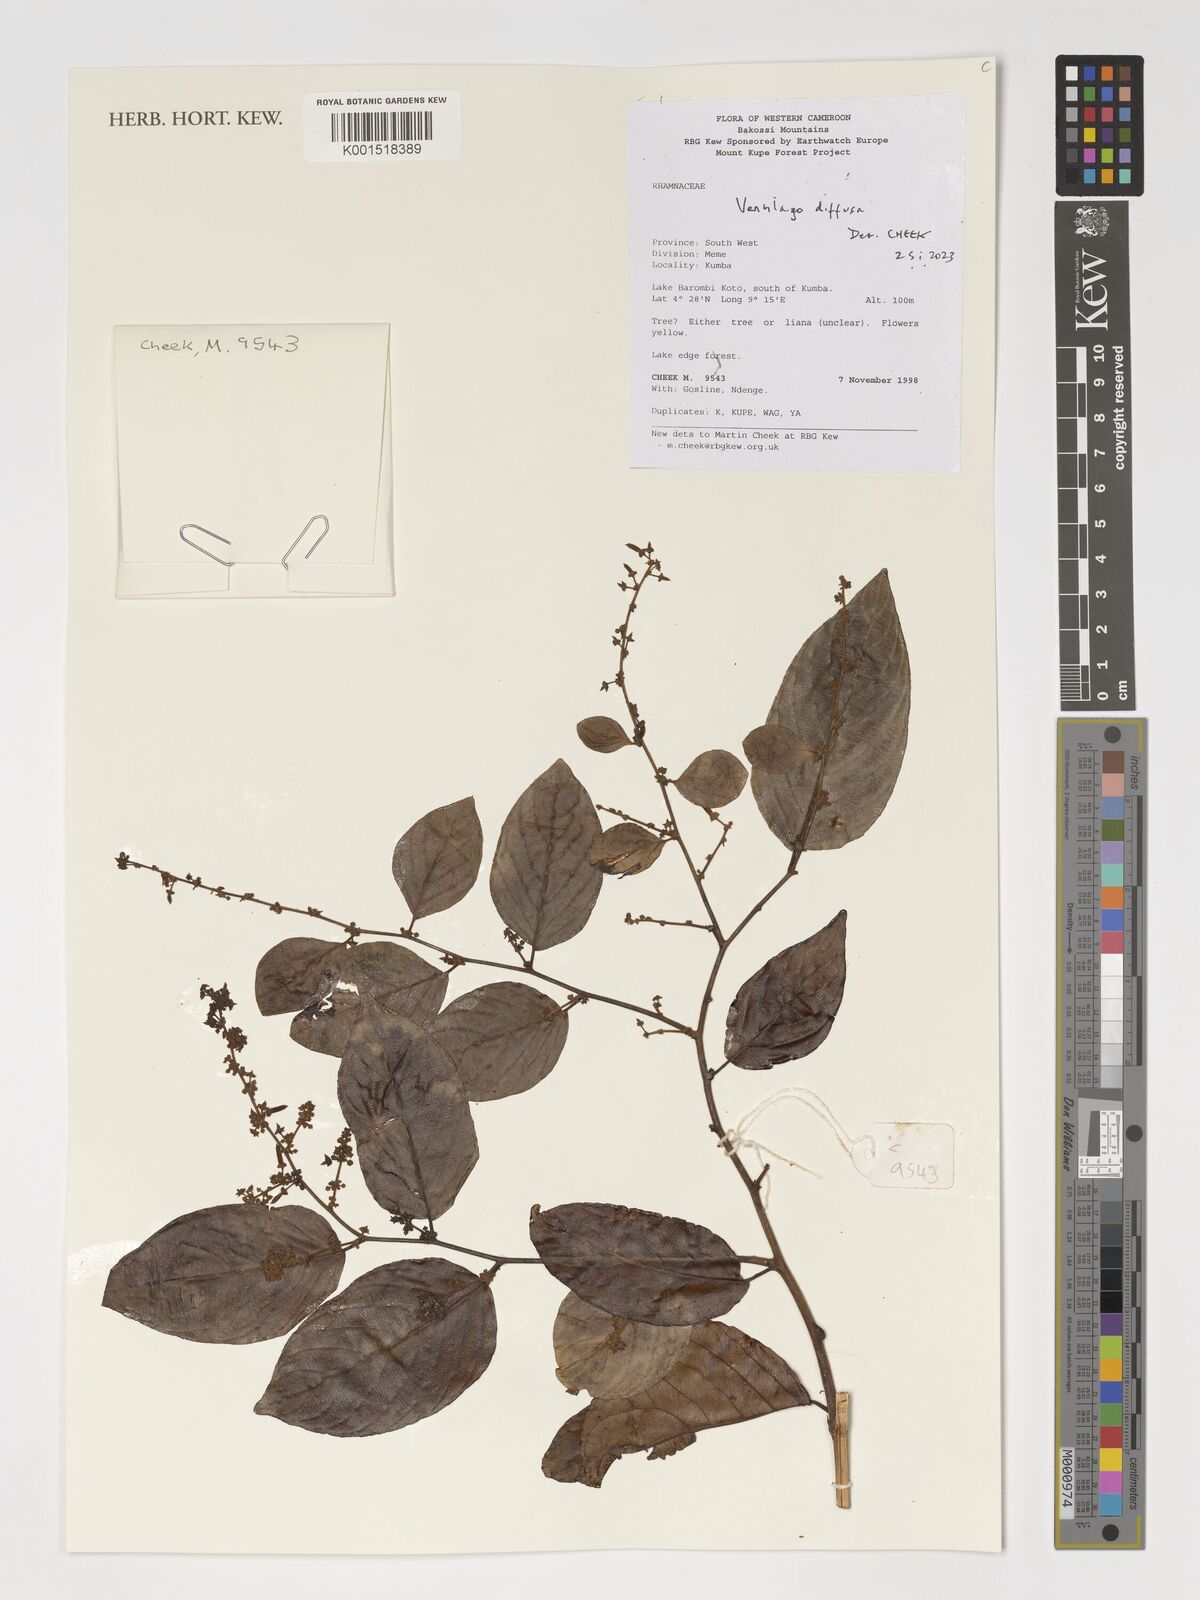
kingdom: Plantae
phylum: Tracheophyta
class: Magnoliopsida
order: Rosales
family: Rhamnaceae
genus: Ventilago
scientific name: Ventilago diffusa
